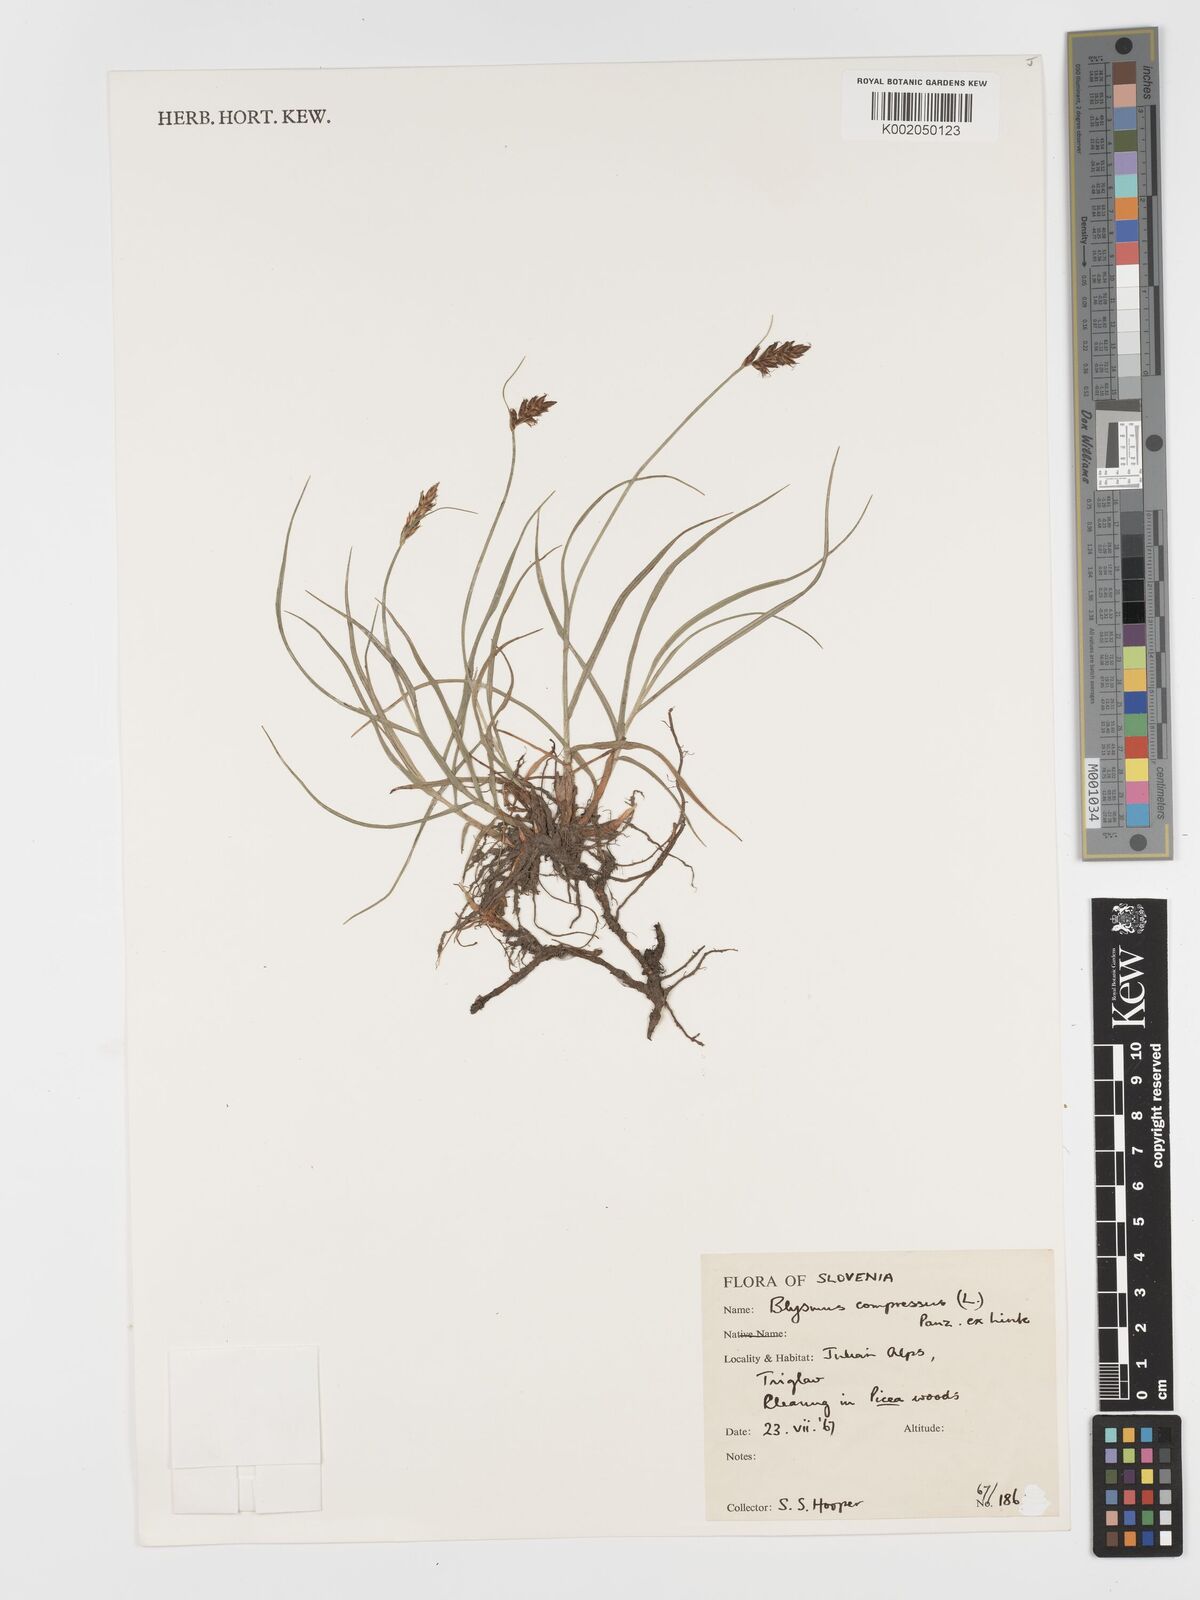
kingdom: Plantae
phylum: Tracheophyta
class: Liliopsida
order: Poales
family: Cyperaceae
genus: Blysmus
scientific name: Blysmus compressus
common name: Flat-sedge
